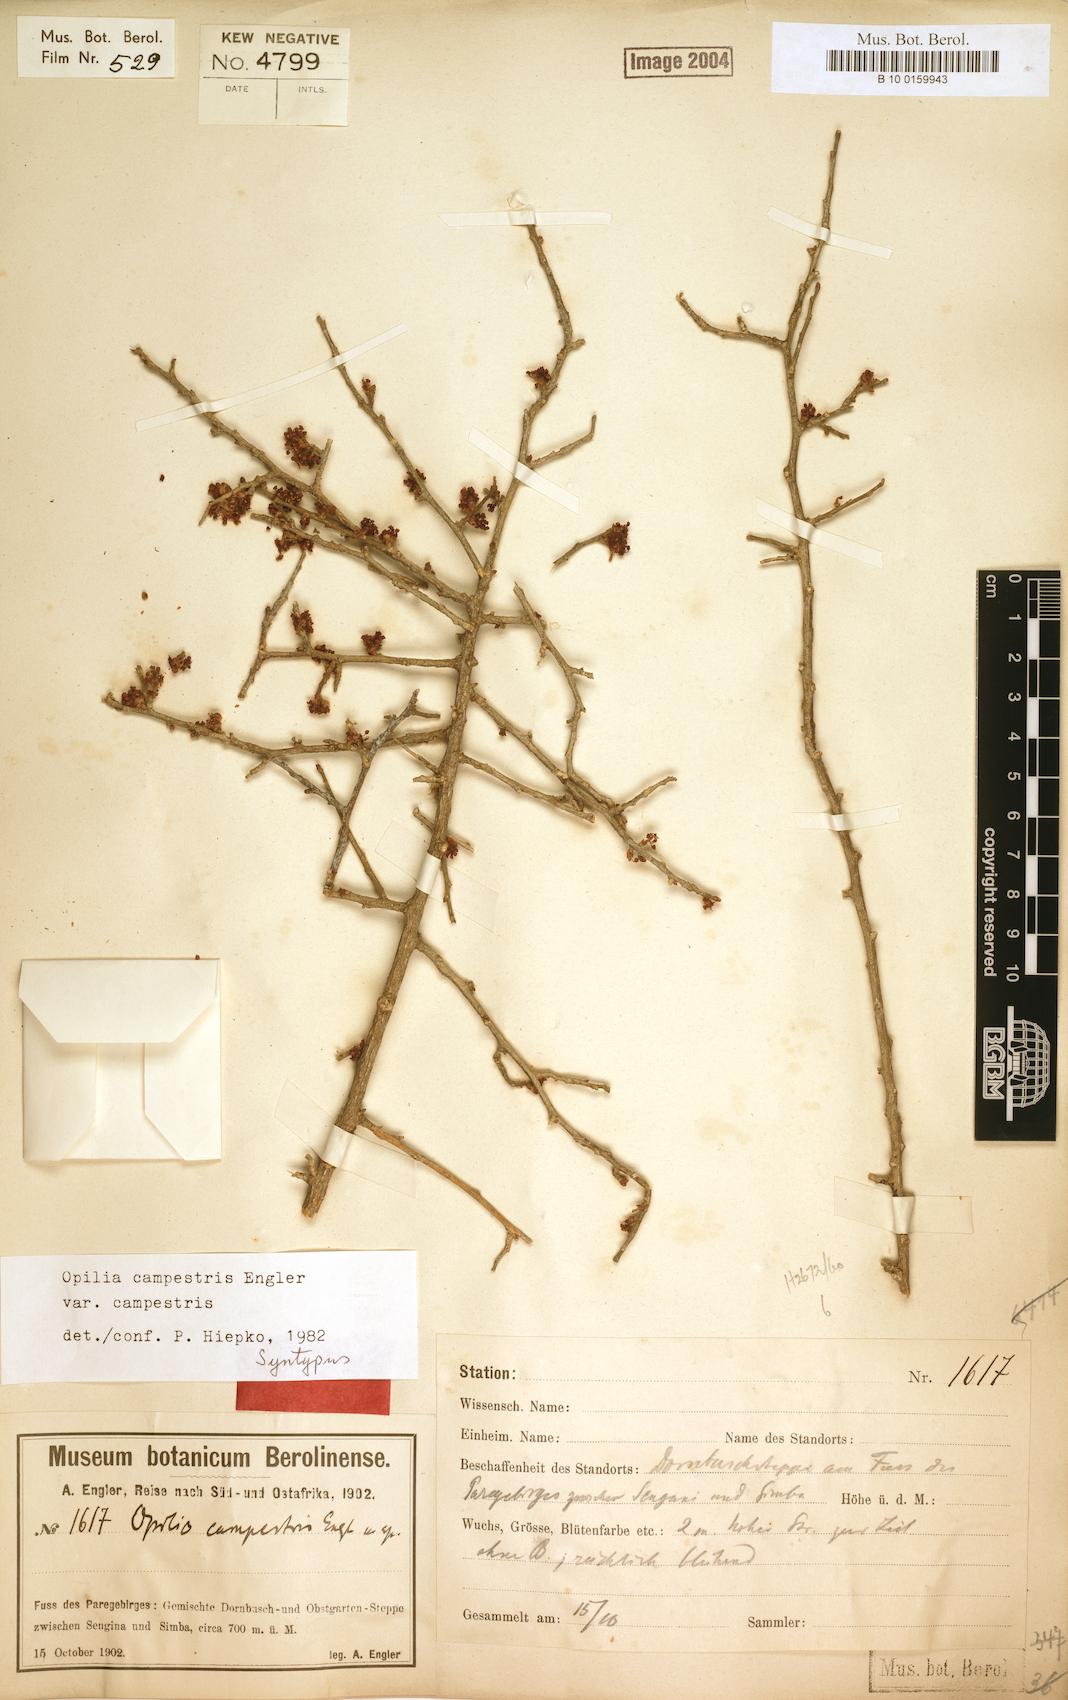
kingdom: Plantae
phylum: Tracheophyta
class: Magnoliopsida
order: Santalales
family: Opiliaceae
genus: Opilia
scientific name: Opilia campestris
